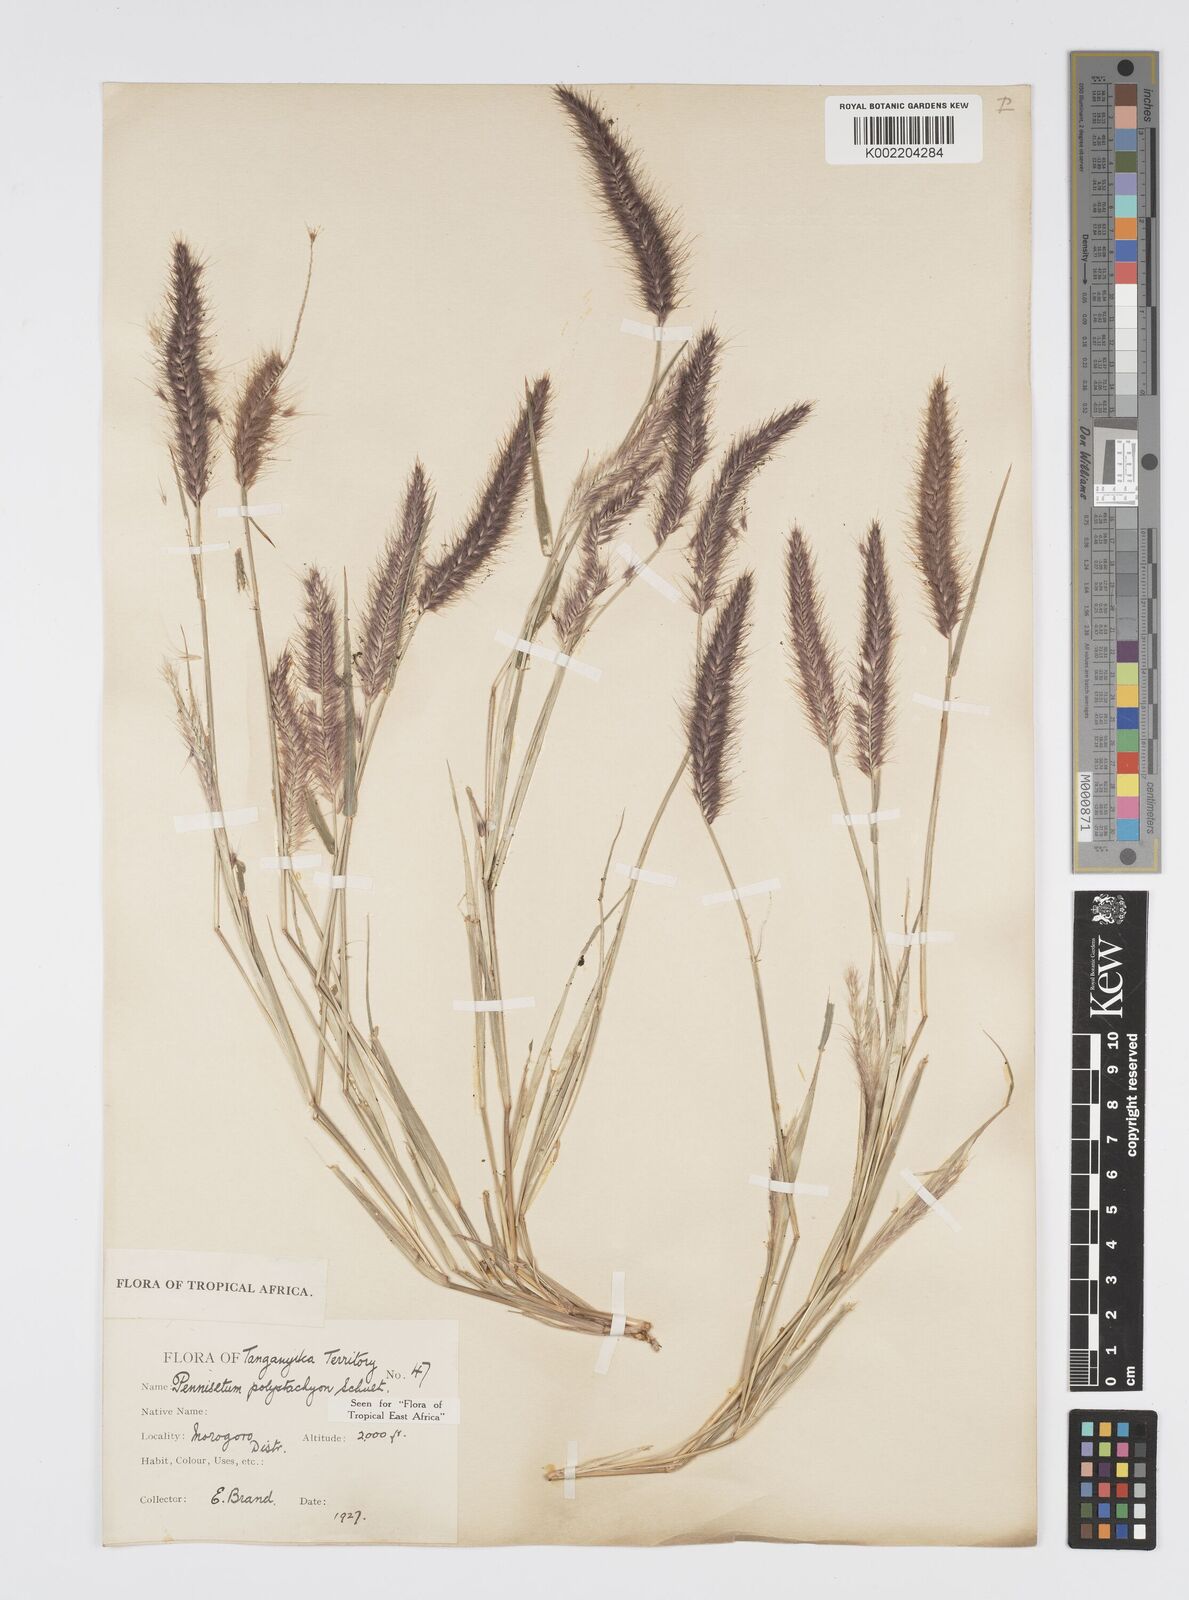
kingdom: Plantae
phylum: Tracheophyta
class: Liliopsida
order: Poales
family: Poaceae
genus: Setaria
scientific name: Setaria parviflora
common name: Knotroot bristle-grass
